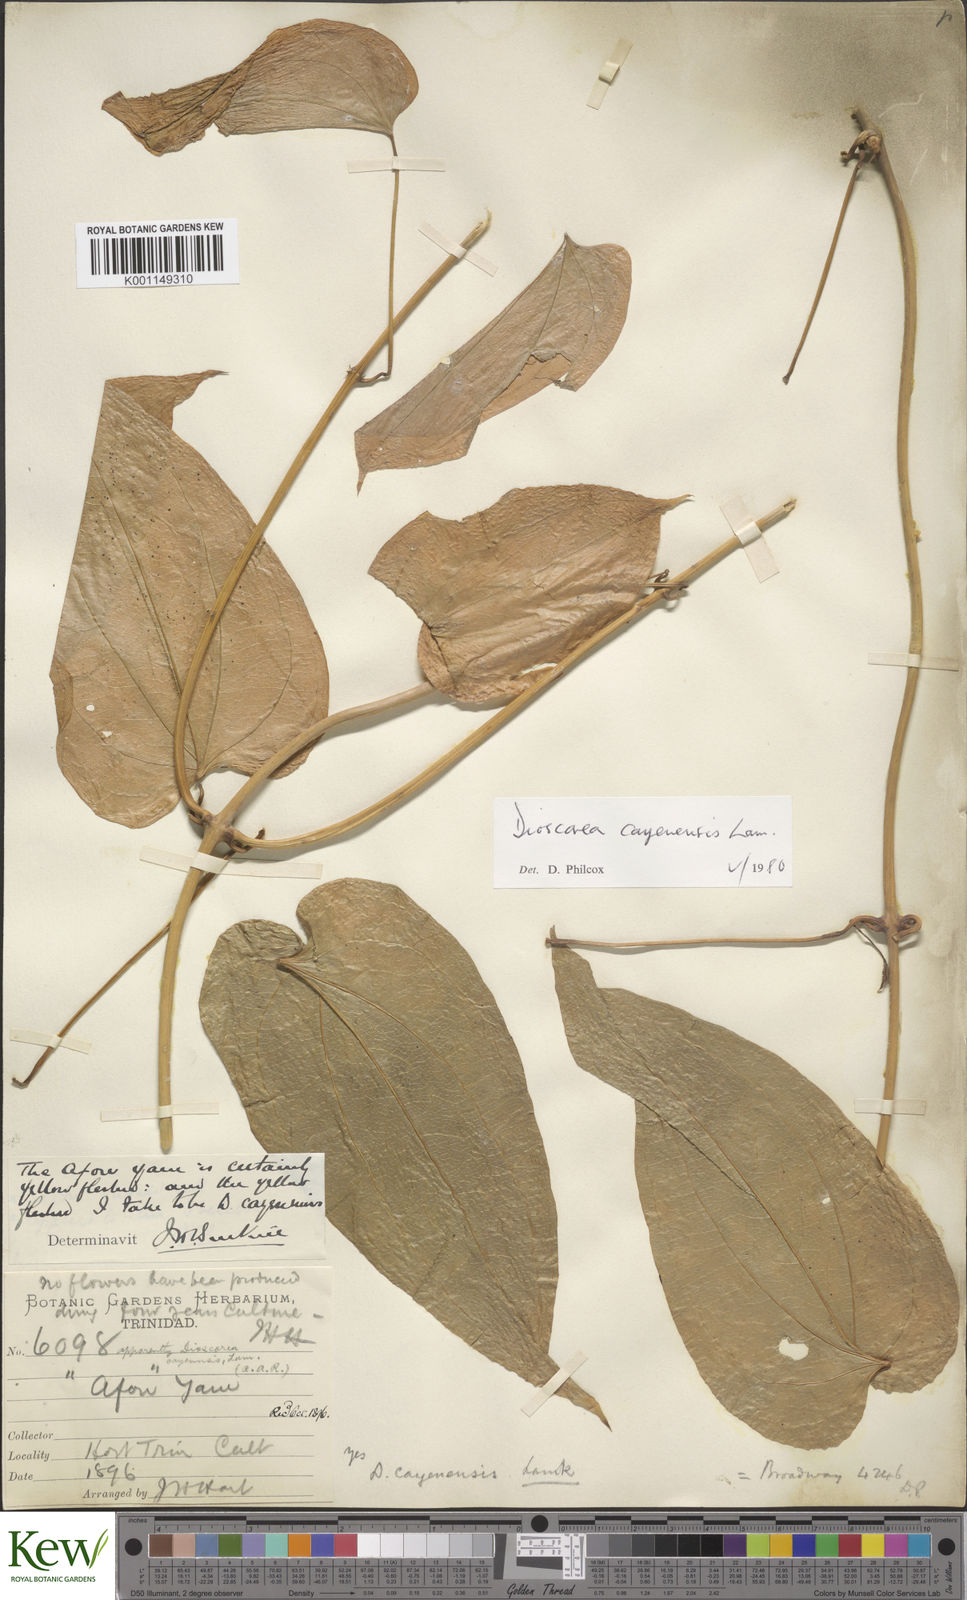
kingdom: Plantae
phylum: Tracheophyta
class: Liliopsida
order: Dioscoreales
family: Dioscoreaceae
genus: Dioscorea
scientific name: Dioscorea cayenensis
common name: Attoto yam
